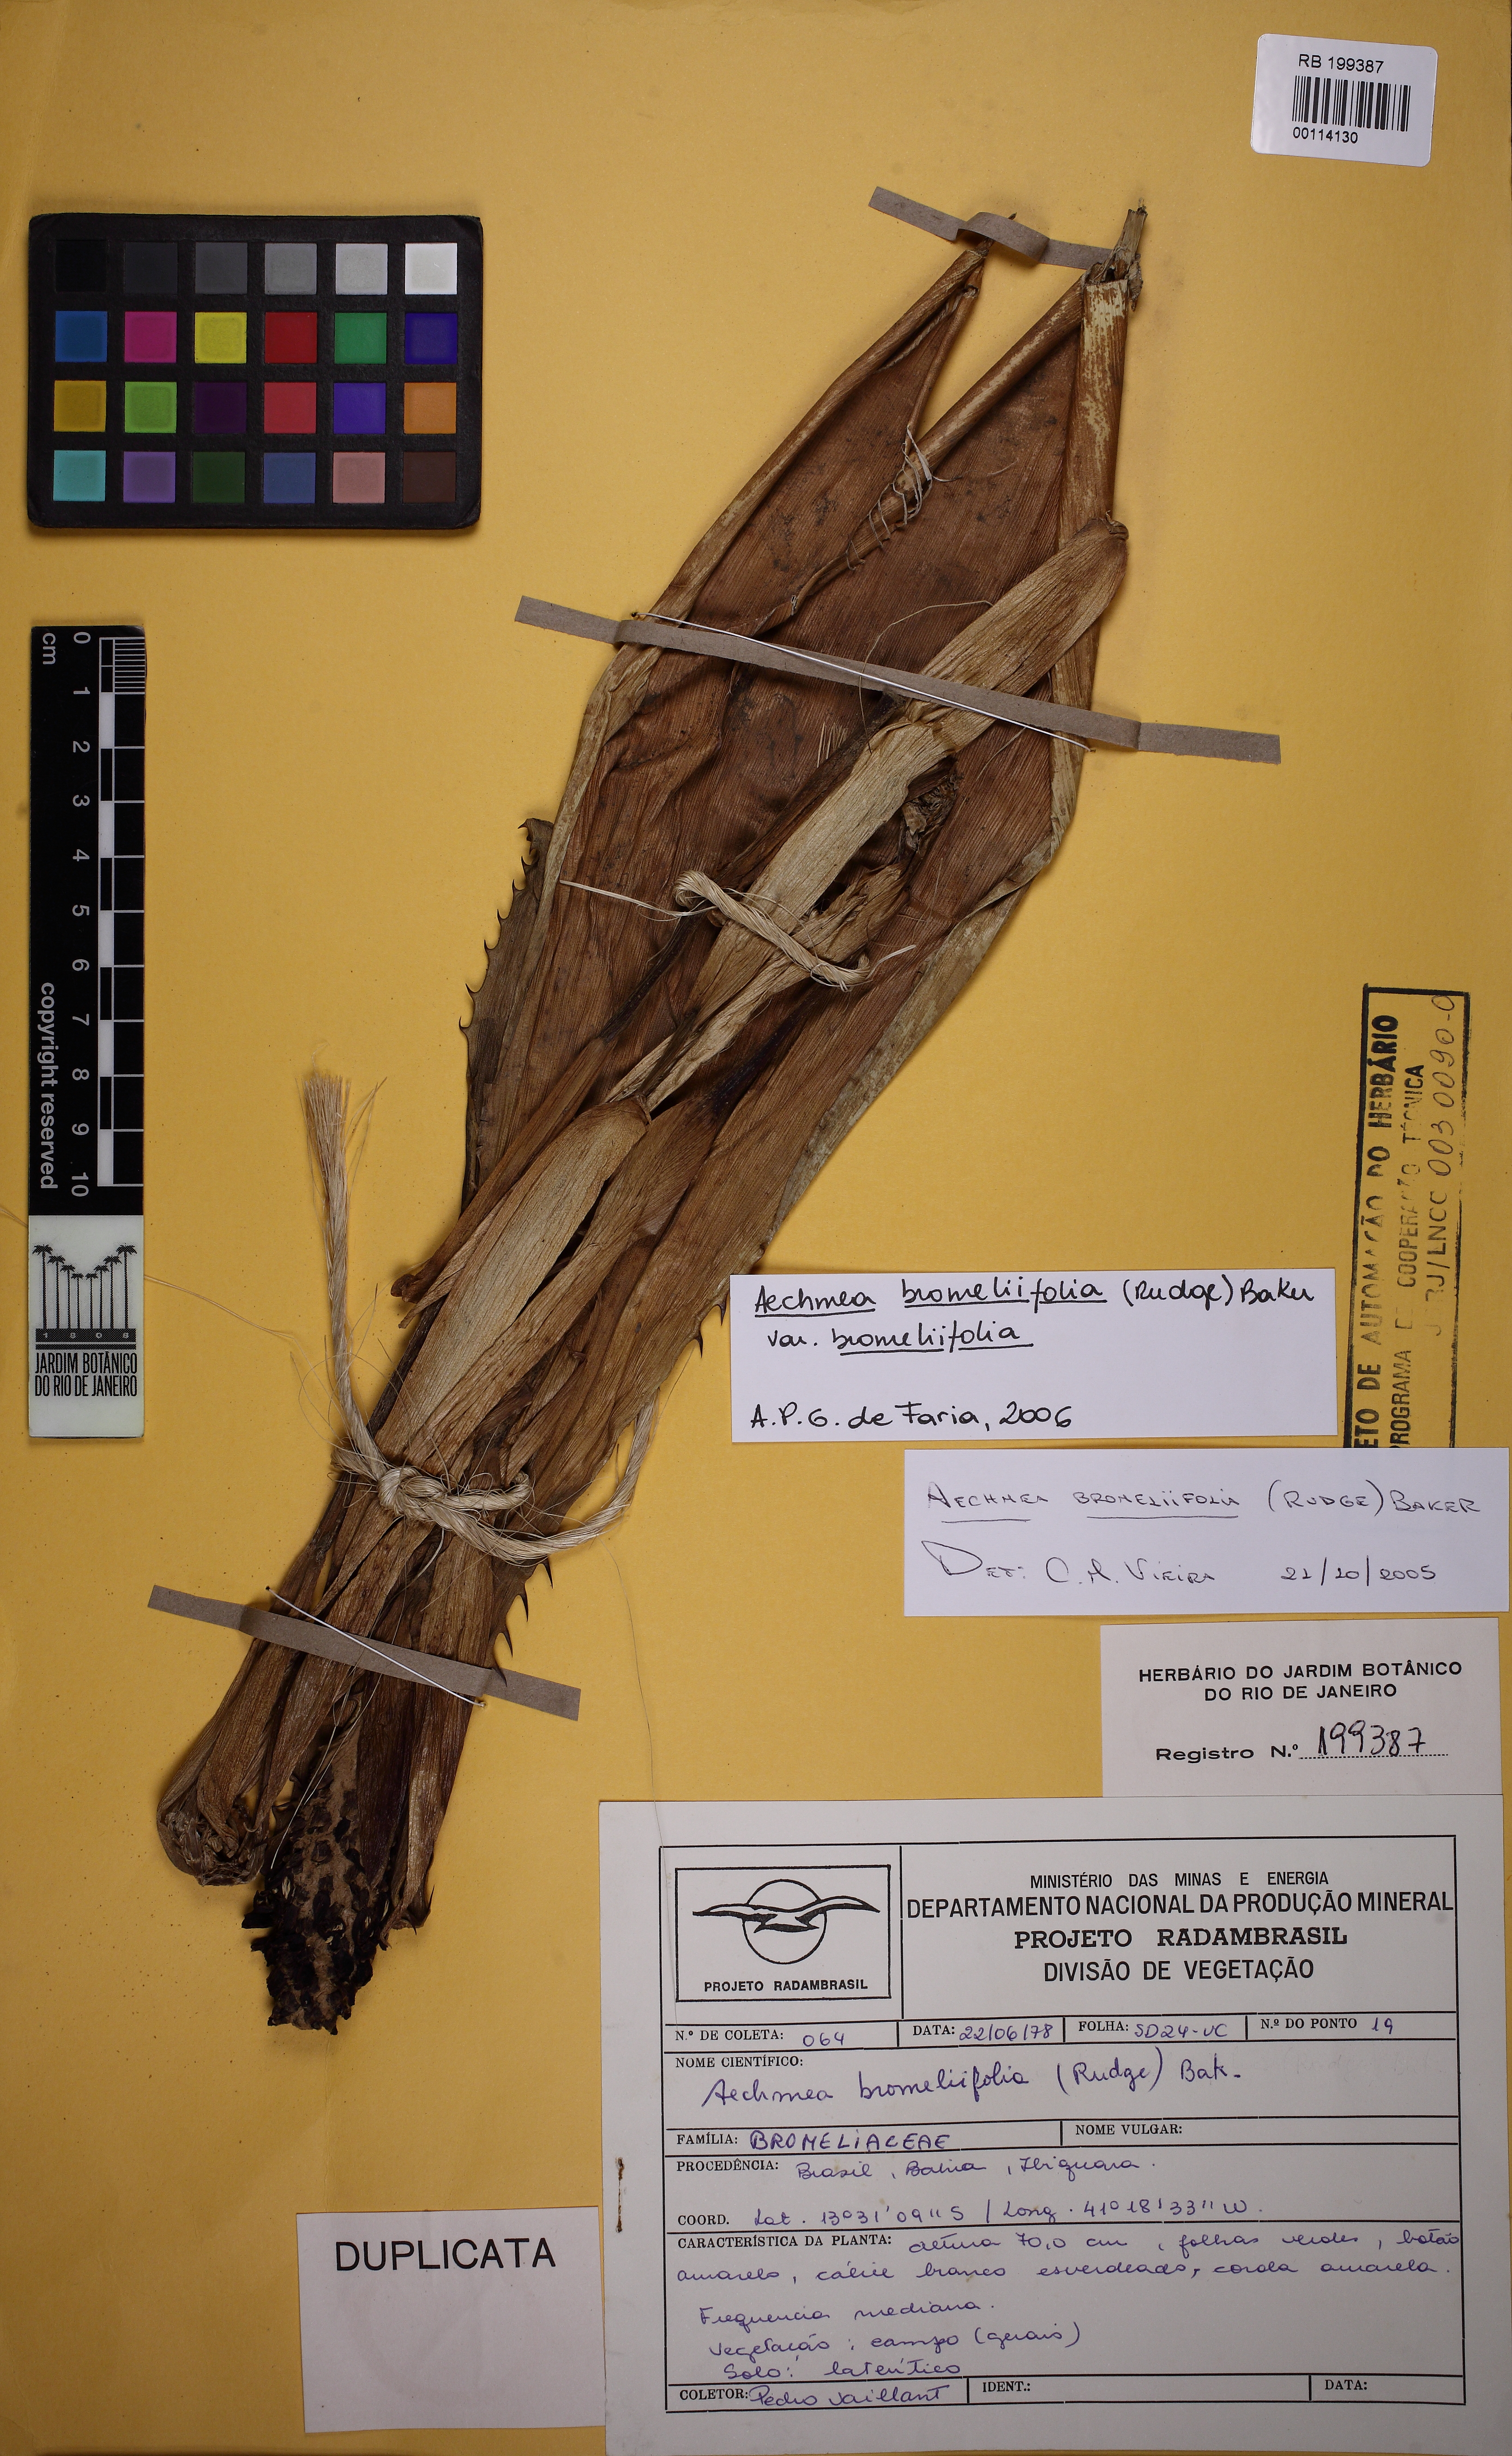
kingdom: Plantae
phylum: Tracheophyta
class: Liliopsida
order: Poales
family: Bromeliaceae
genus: Aechmea
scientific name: Aechmea bromeliifolia
